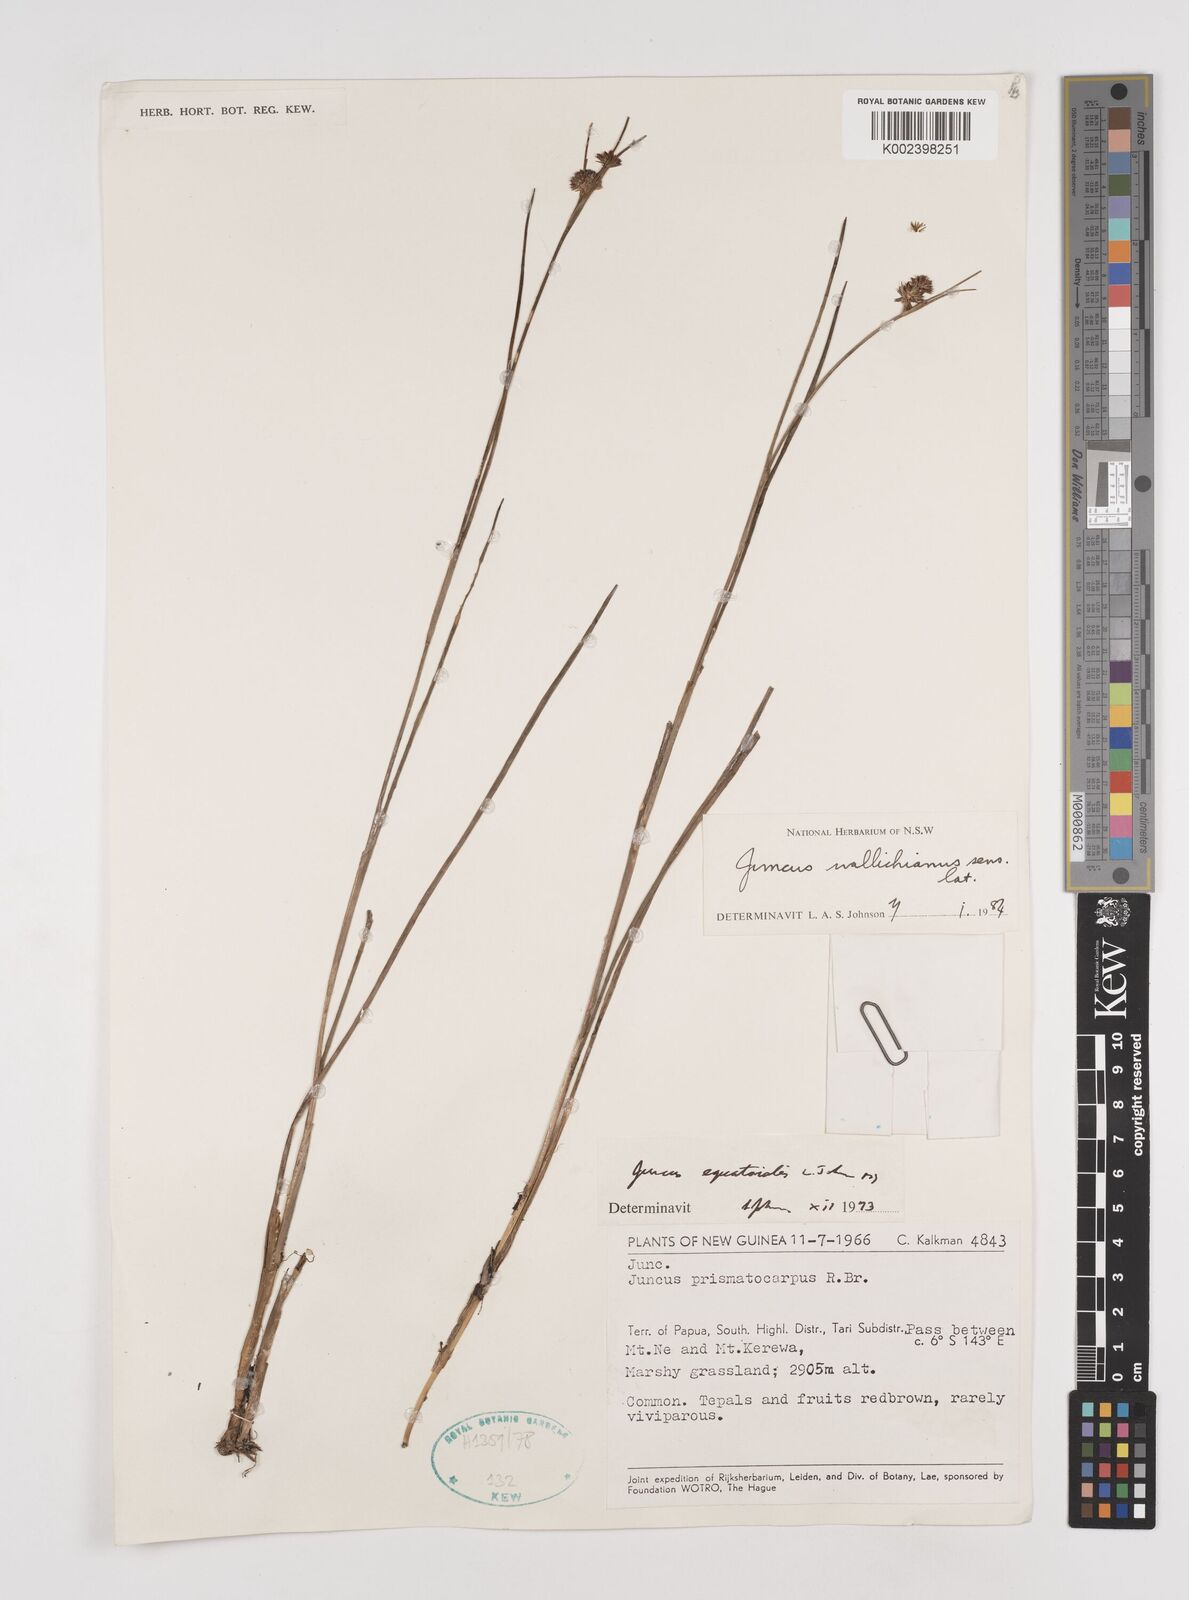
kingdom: Plantae
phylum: Tracheophyta
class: Liliopsida
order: Poales
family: Juncaceae
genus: Juncus
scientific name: Juncus wallichianus
